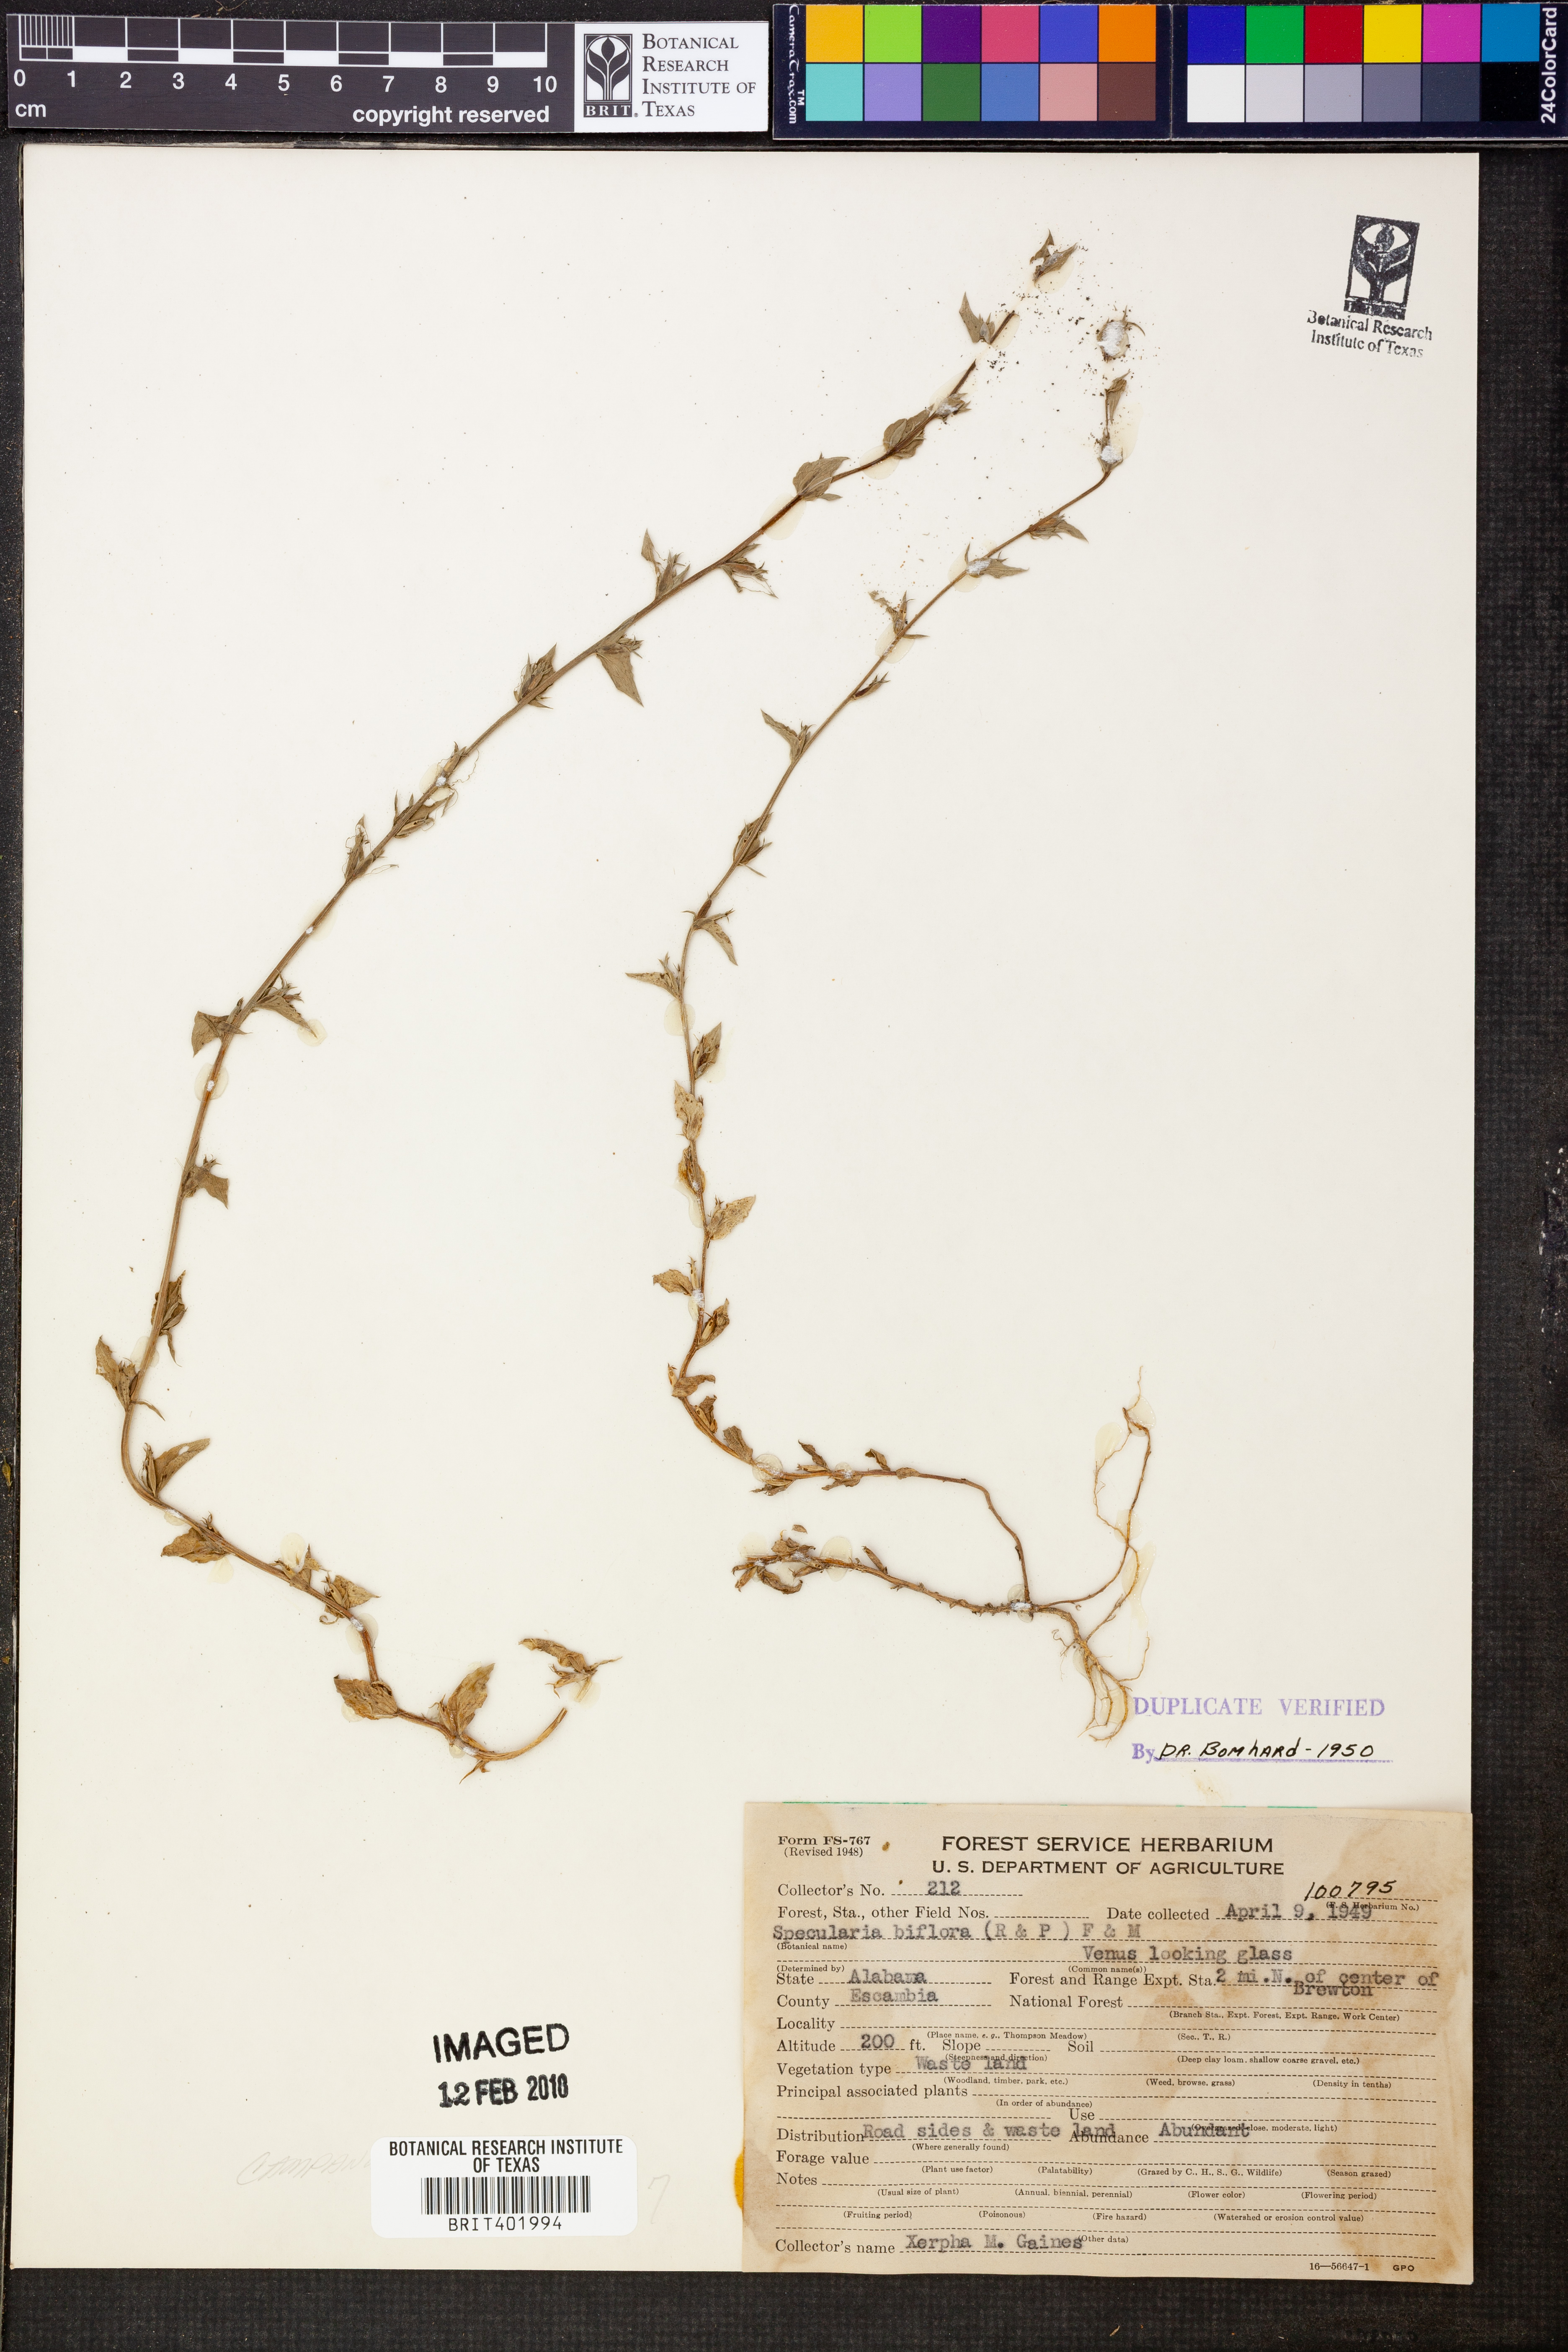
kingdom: Plantae
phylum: Tracheophyta
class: Magnoliopsida
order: Asterales
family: Campanulaceae
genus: Triodanis
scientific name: Triodanis perfoliata
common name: Clasping venus' looking-glass
